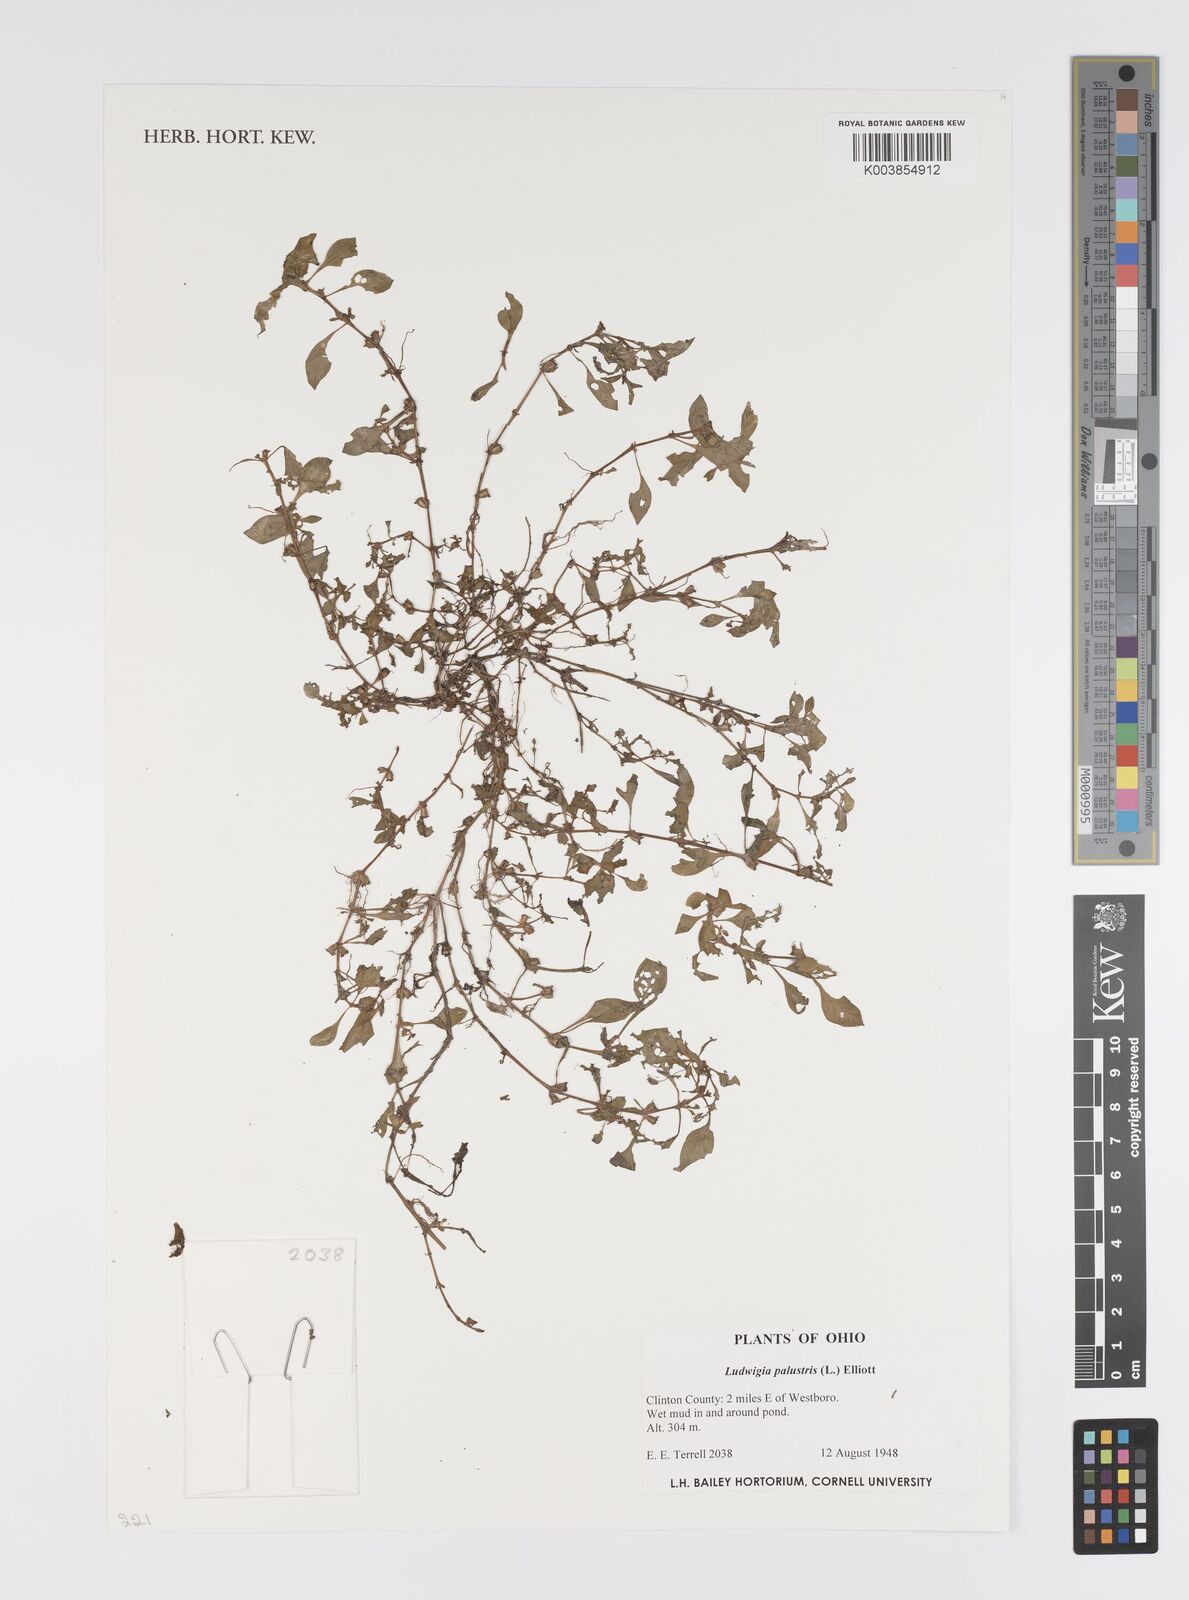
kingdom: Plantae
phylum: Tracheophyta
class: Magnoliopsida
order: Myrtales
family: Onagraceae
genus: Ludwigia
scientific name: Ludwigia palustris
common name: Hampshire-purslane
